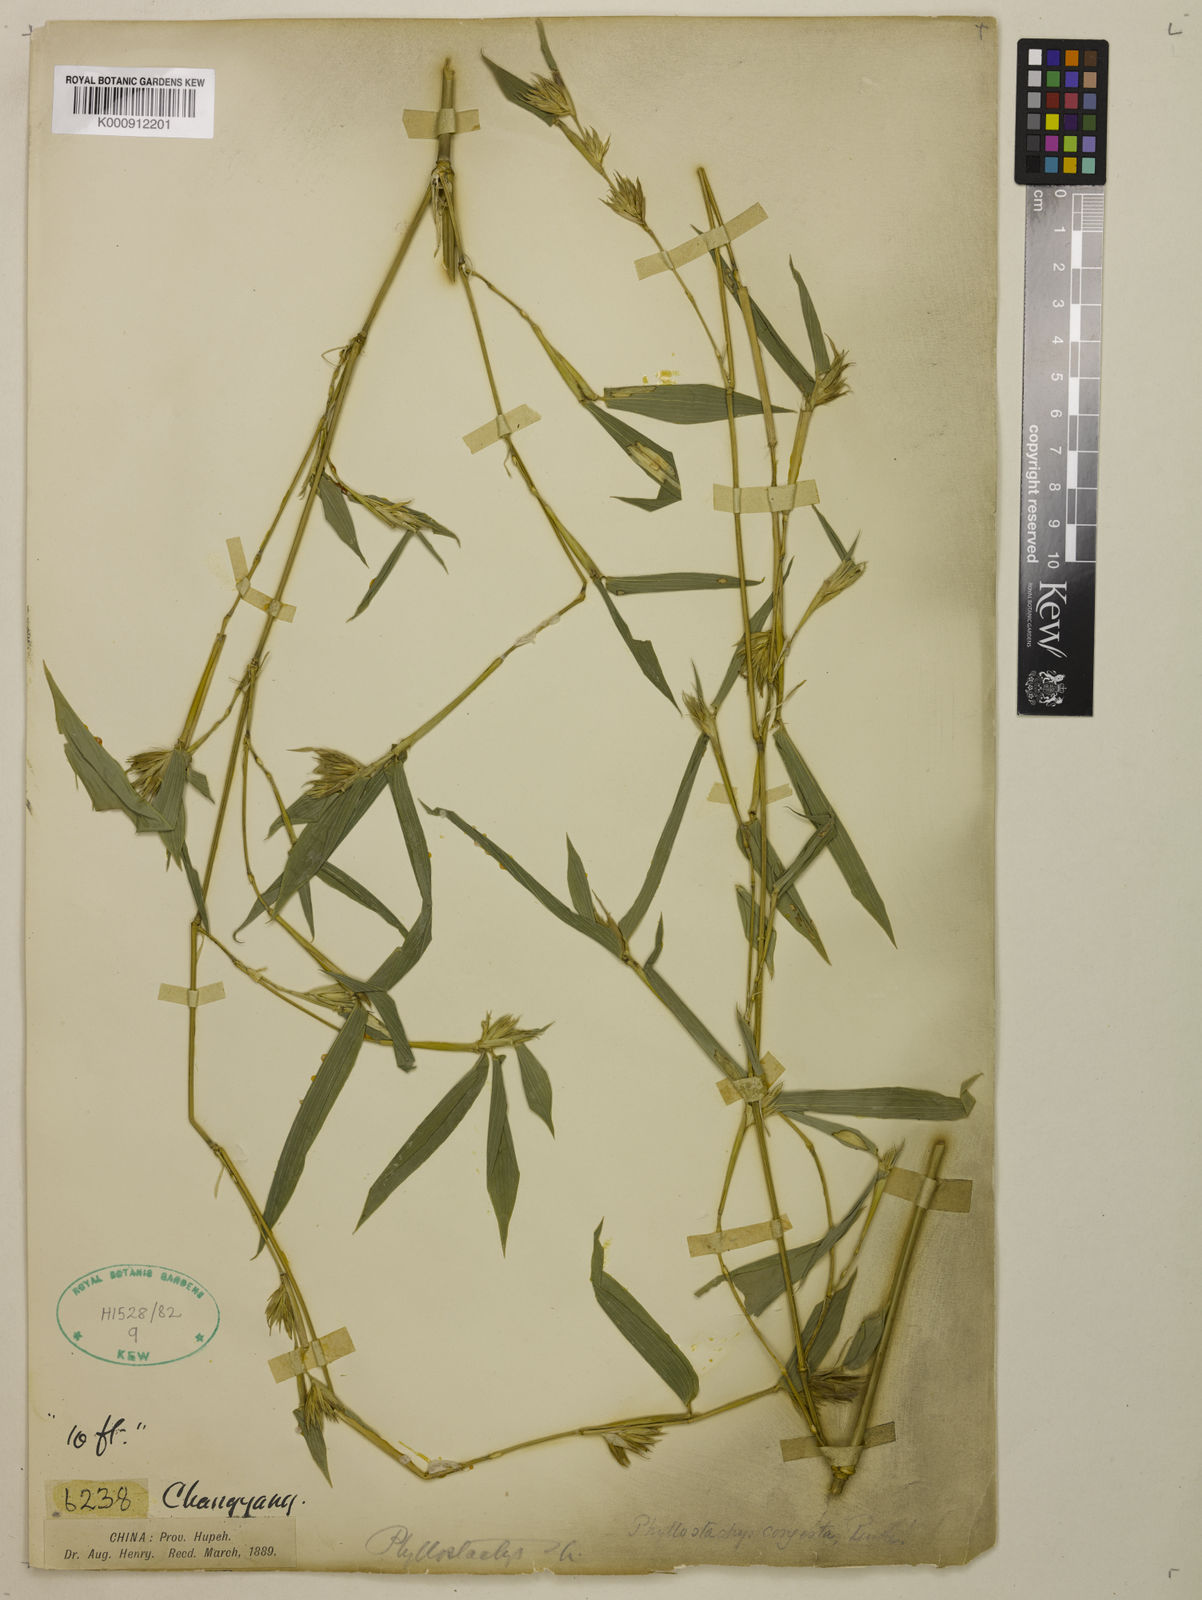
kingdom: Plantae
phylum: Tracheophyta
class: Liliopsida
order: Poales
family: Poaceae
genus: Phyllostachys
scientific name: Phyllostachys heteroclada
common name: Fishscale bamboo
